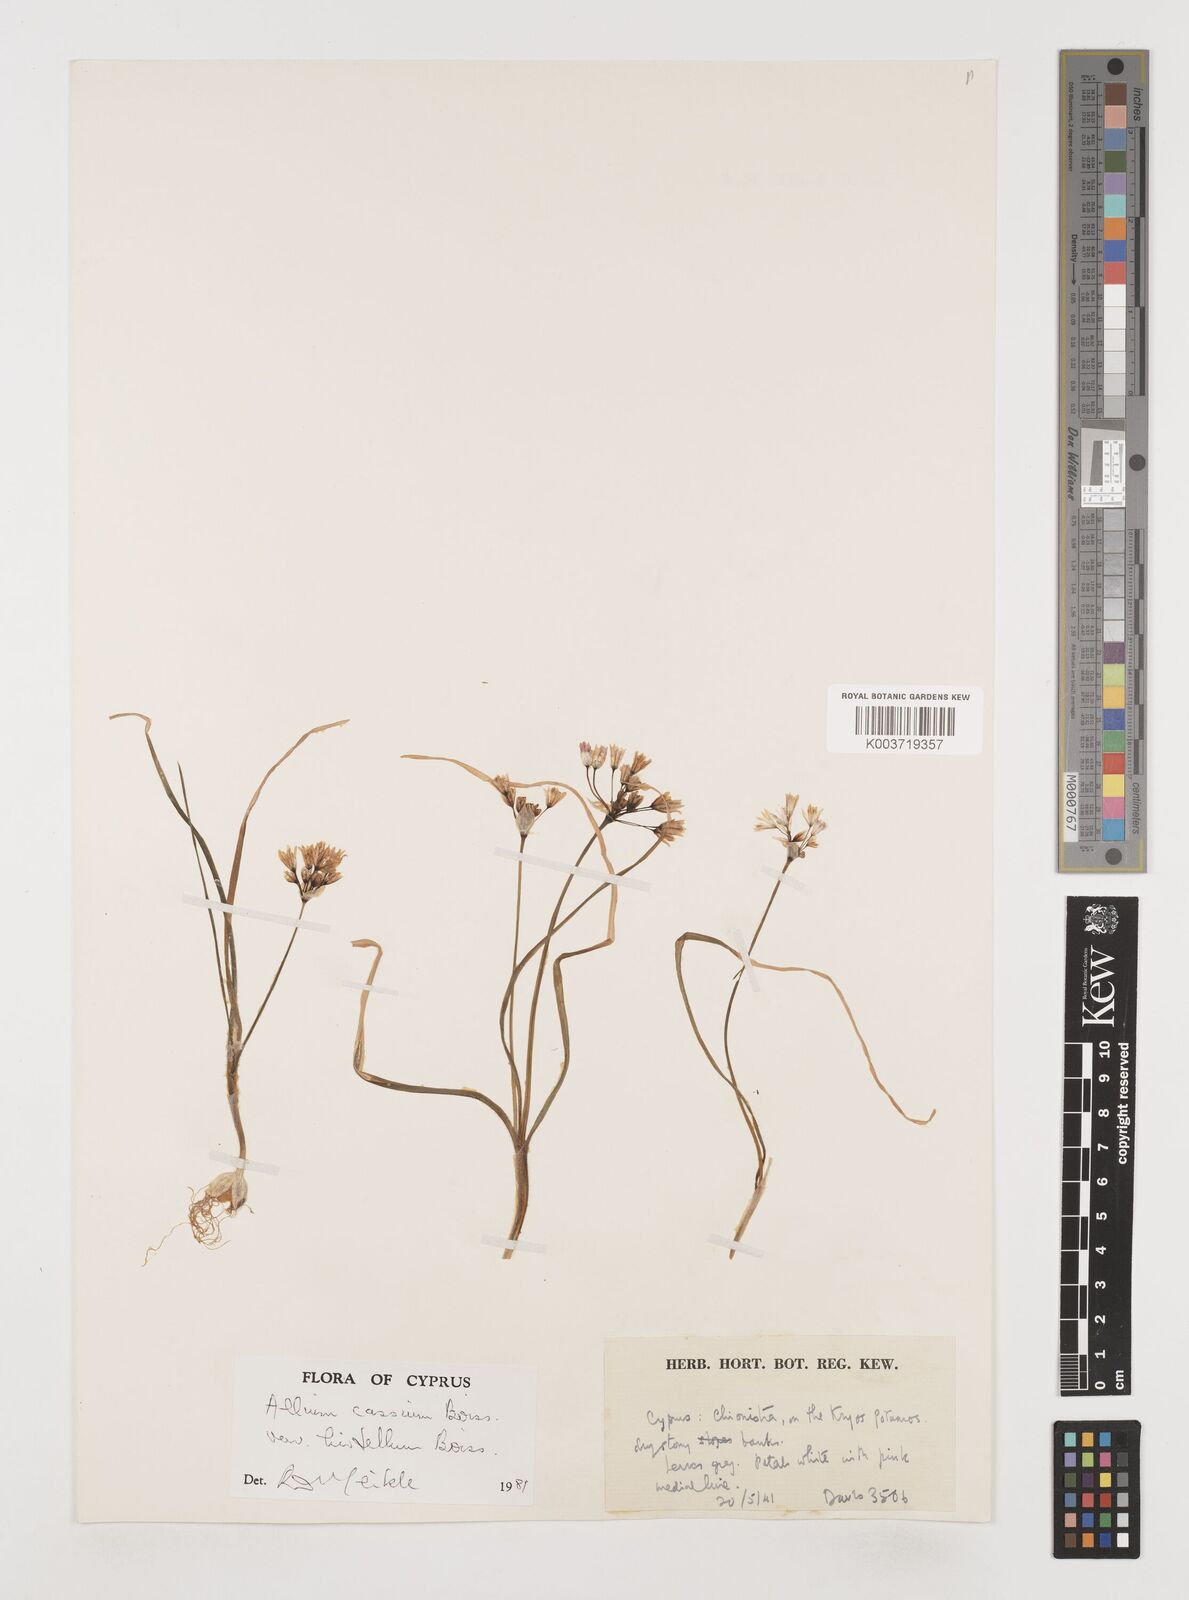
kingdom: Plantae
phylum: Tracheophyta
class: Liliopsida
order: Asparagales
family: Amaryllidaceae
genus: Allium
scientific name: Allium cassium
